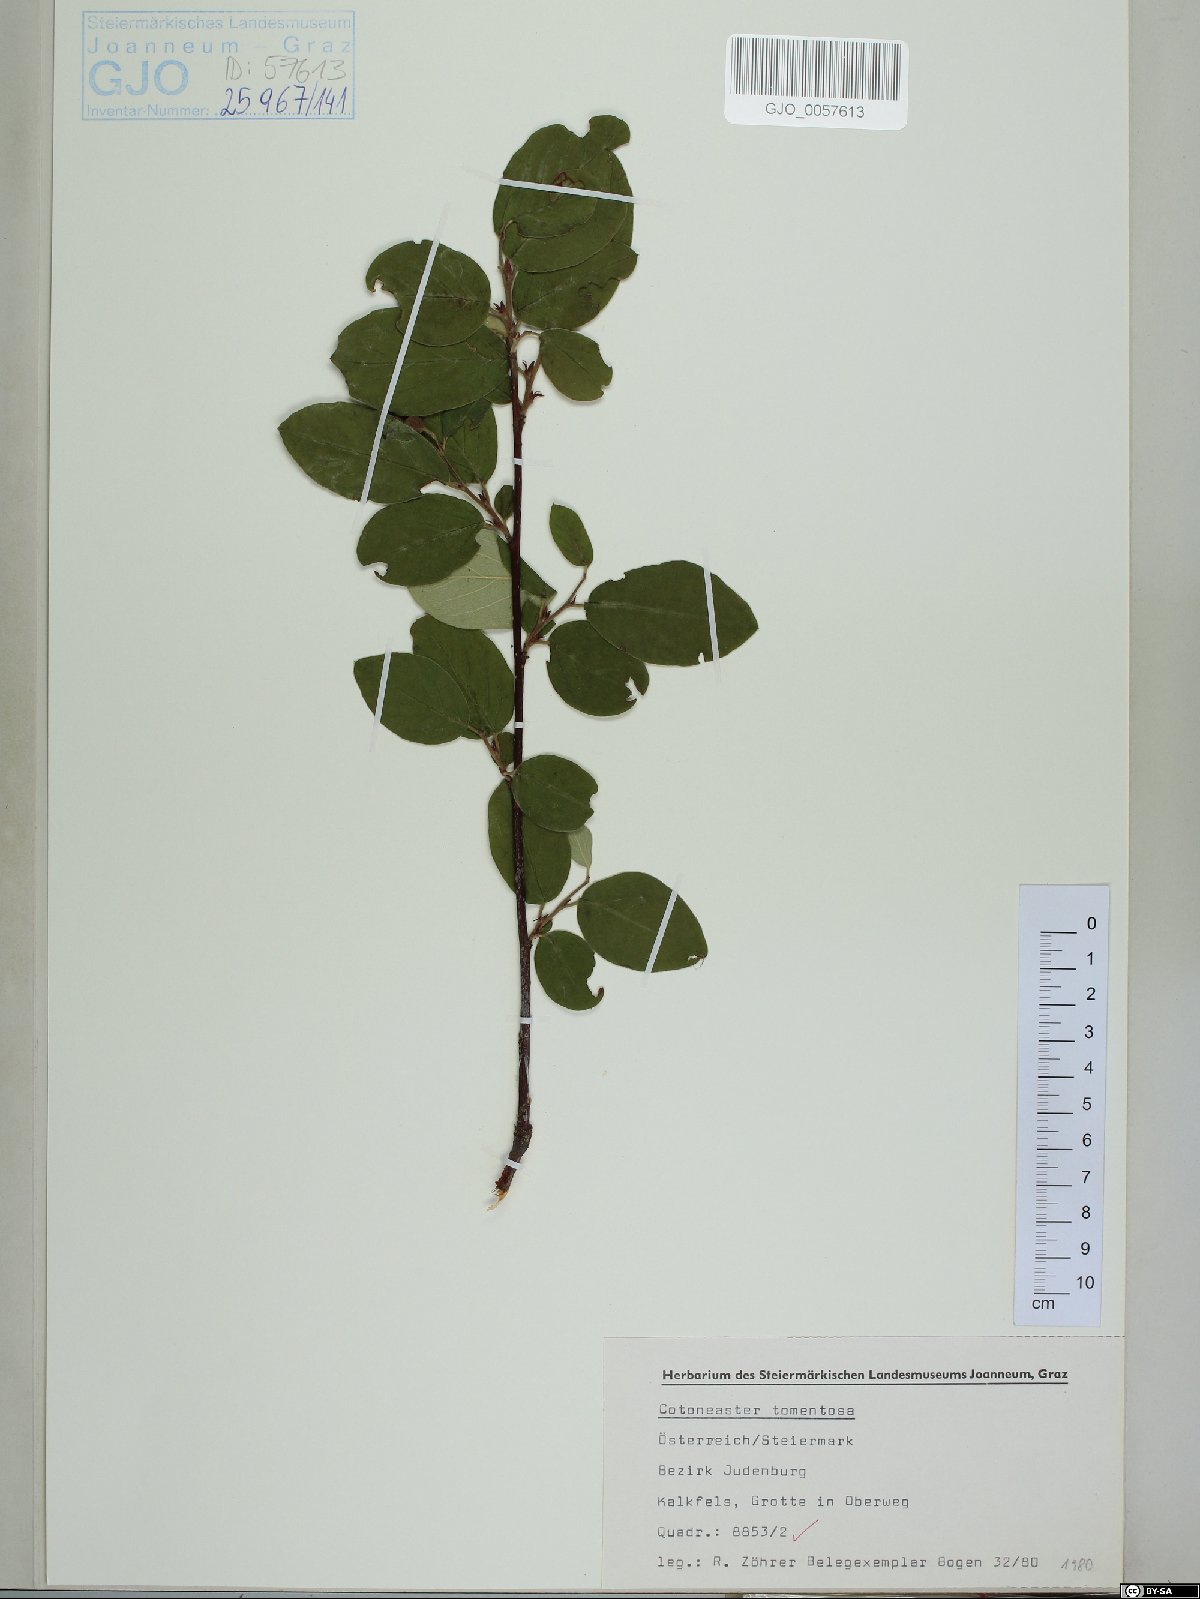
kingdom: Plantae
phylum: Tracheophyta
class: Magnoliopsida
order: Rosales
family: Rosaceae
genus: Cotoneaster
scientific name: Cotoneaster tomentosus
